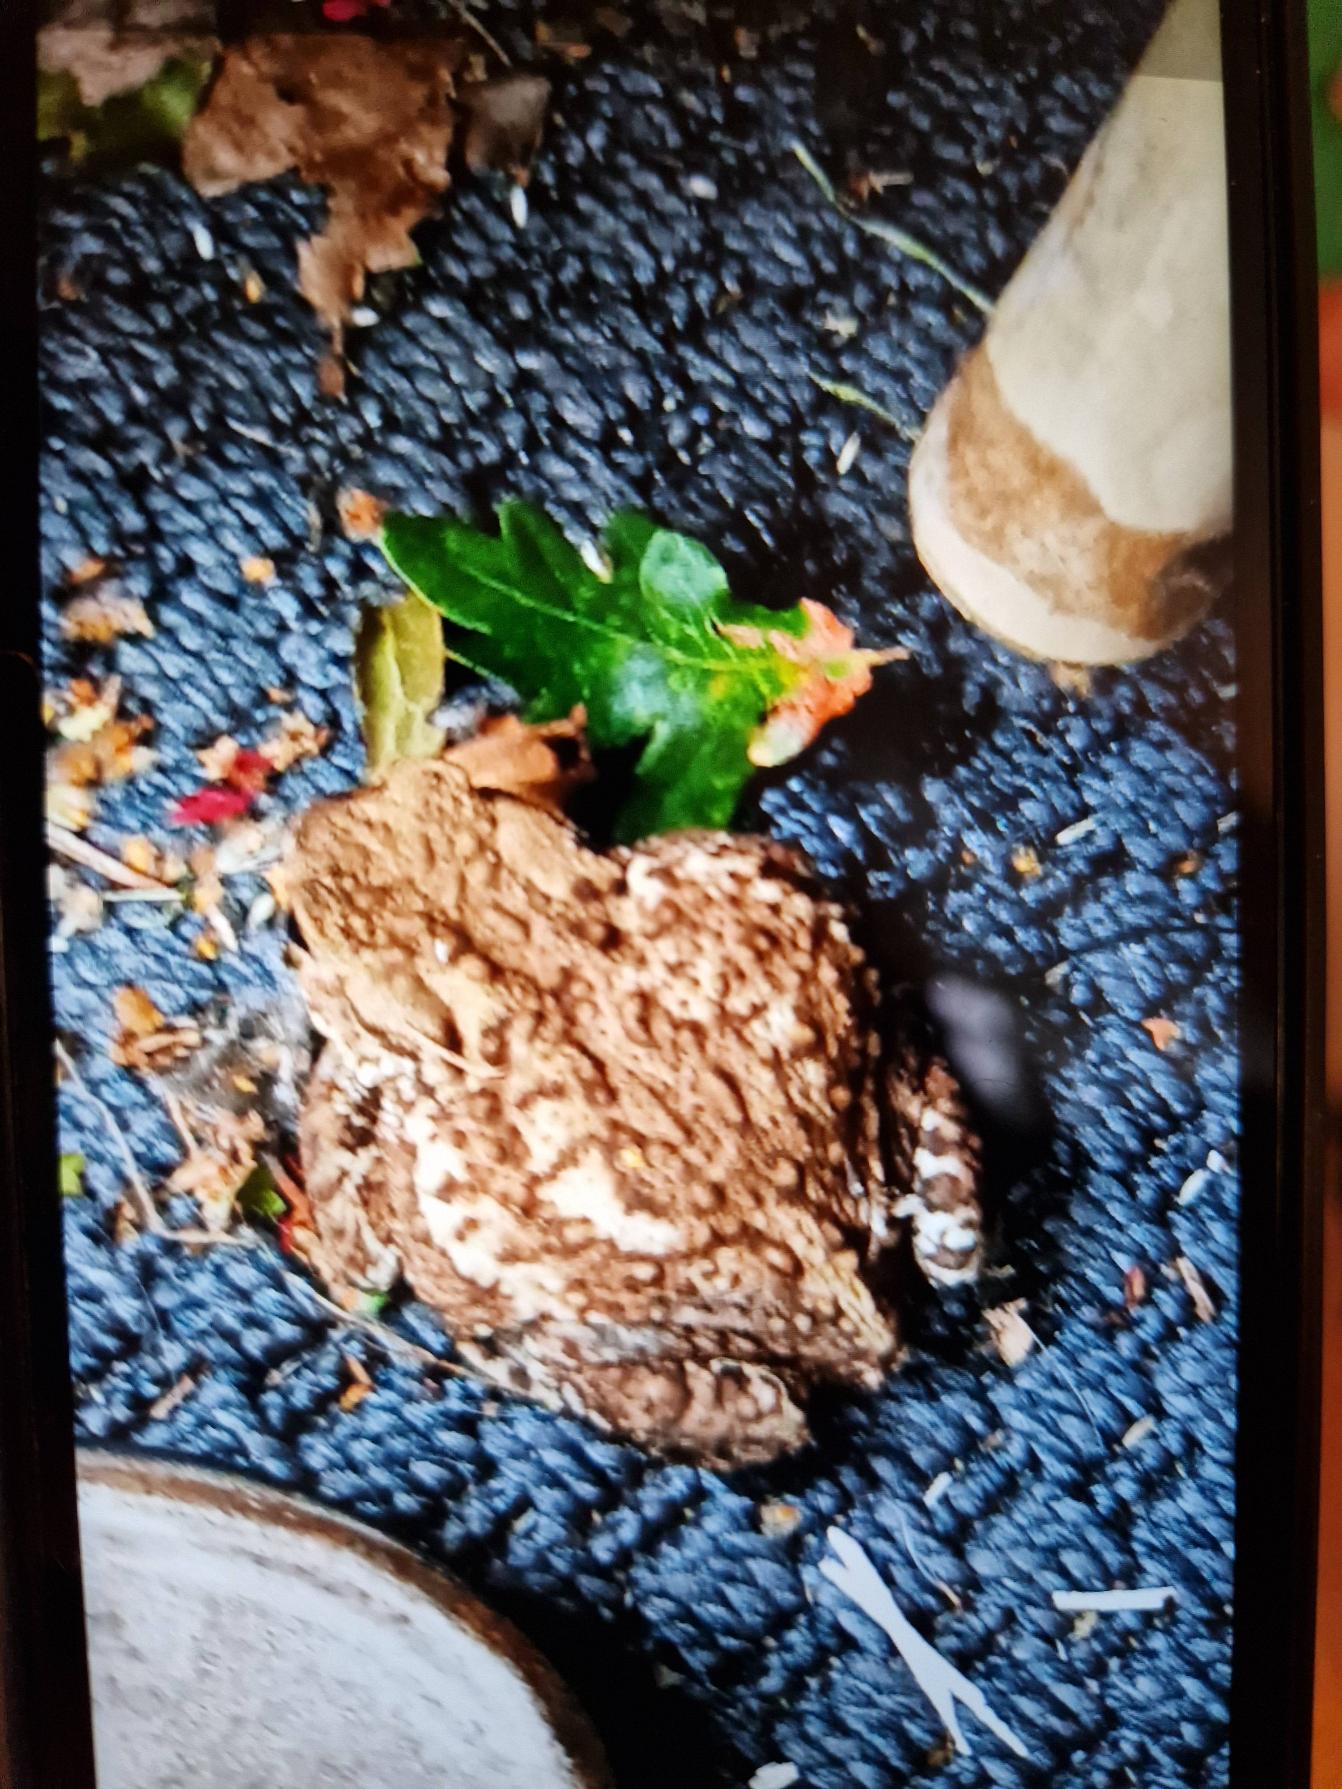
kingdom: Animalia
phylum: Chordata
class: Amphibia
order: Anura
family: Bufonidae
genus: Bufo
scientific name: Bufo bufo
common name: Skrubtudse
